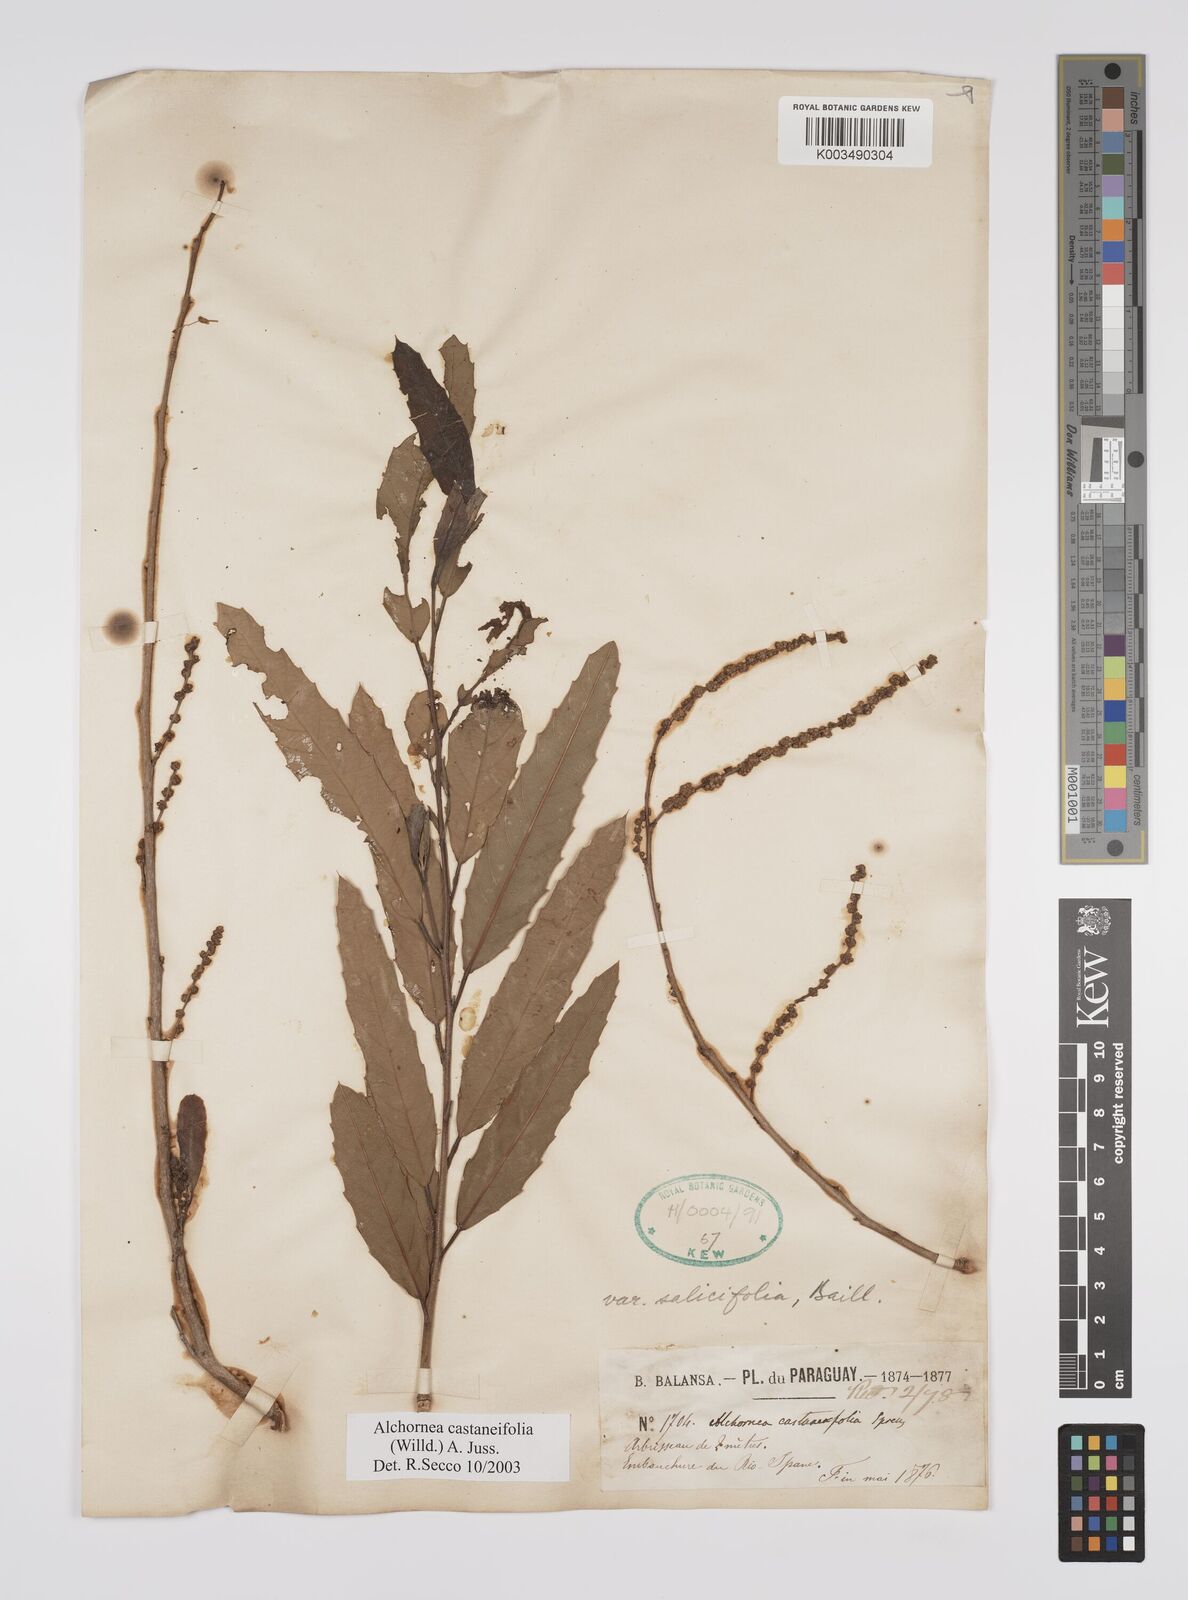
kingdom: Plantae
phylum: Tracheophyta
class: Magnoliopsida
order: Malpighiales
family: Euphorbiaceae
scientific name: Euphorbiaceae
